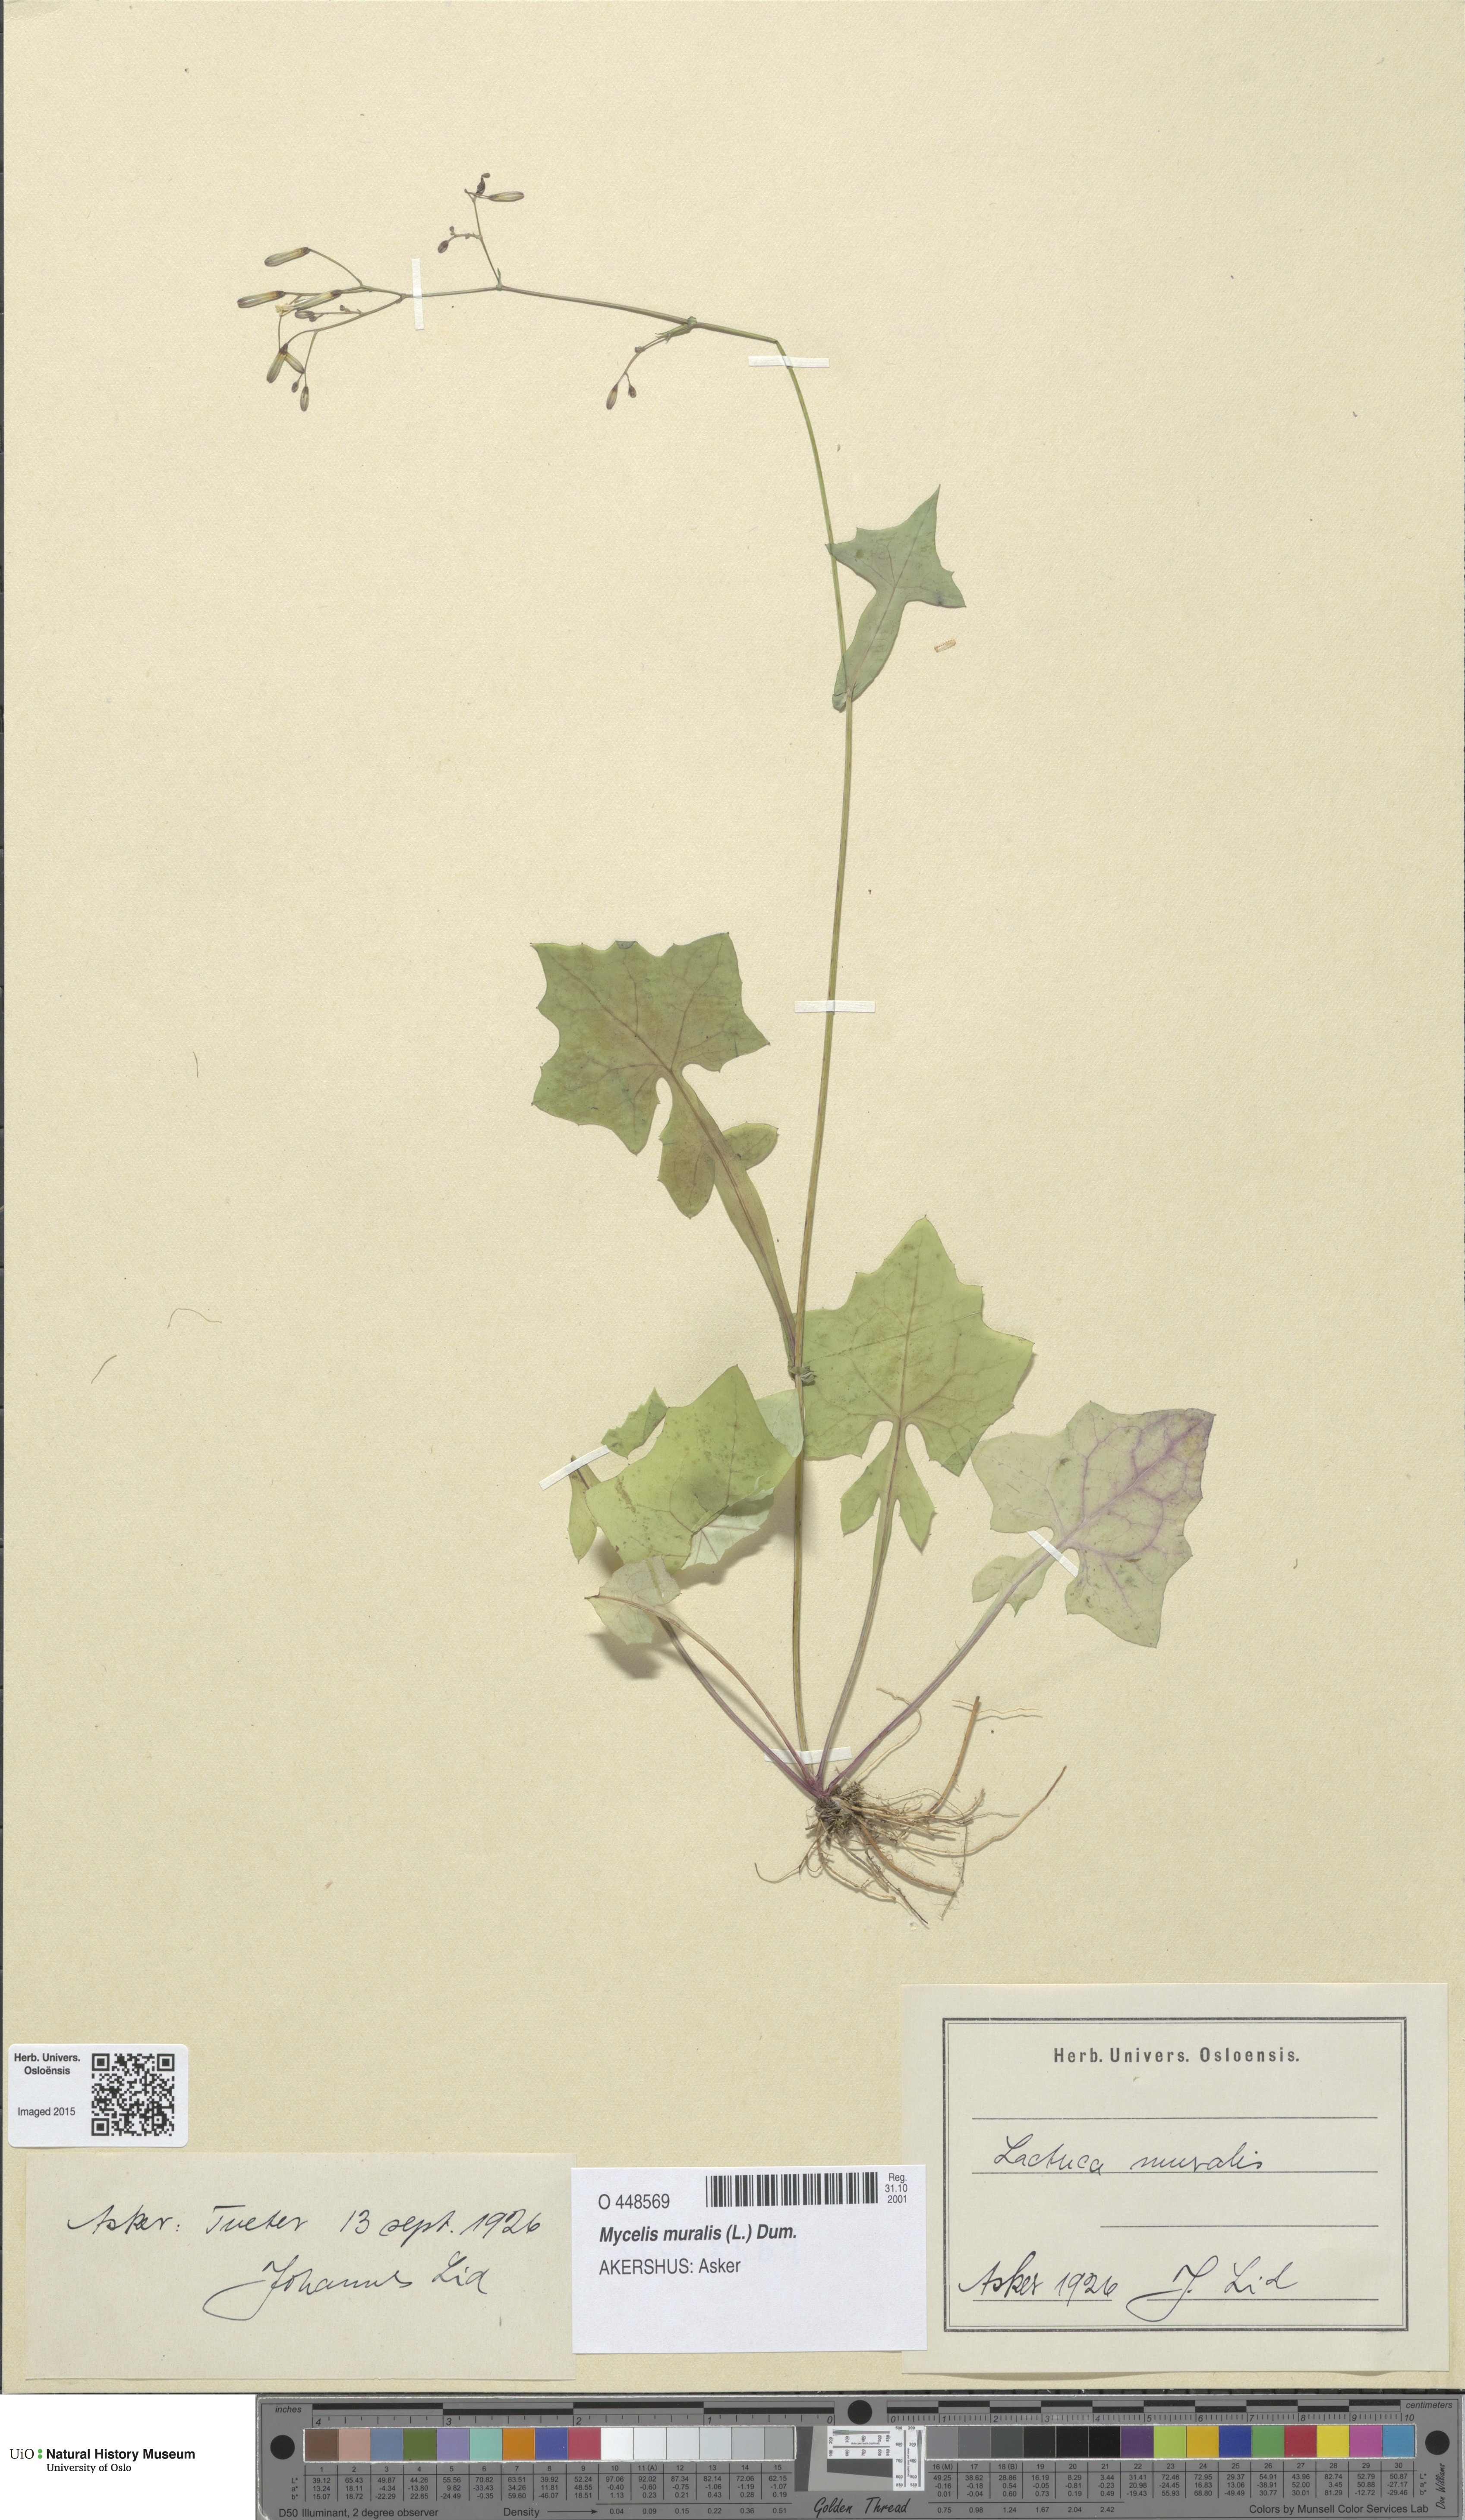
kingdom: Plantae
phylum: Tracheophyta
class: Magnoliopsida
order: Asterales
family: Asteraceae
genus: Mycelis
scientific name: Mycelis muralis
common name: Wall lettuce
